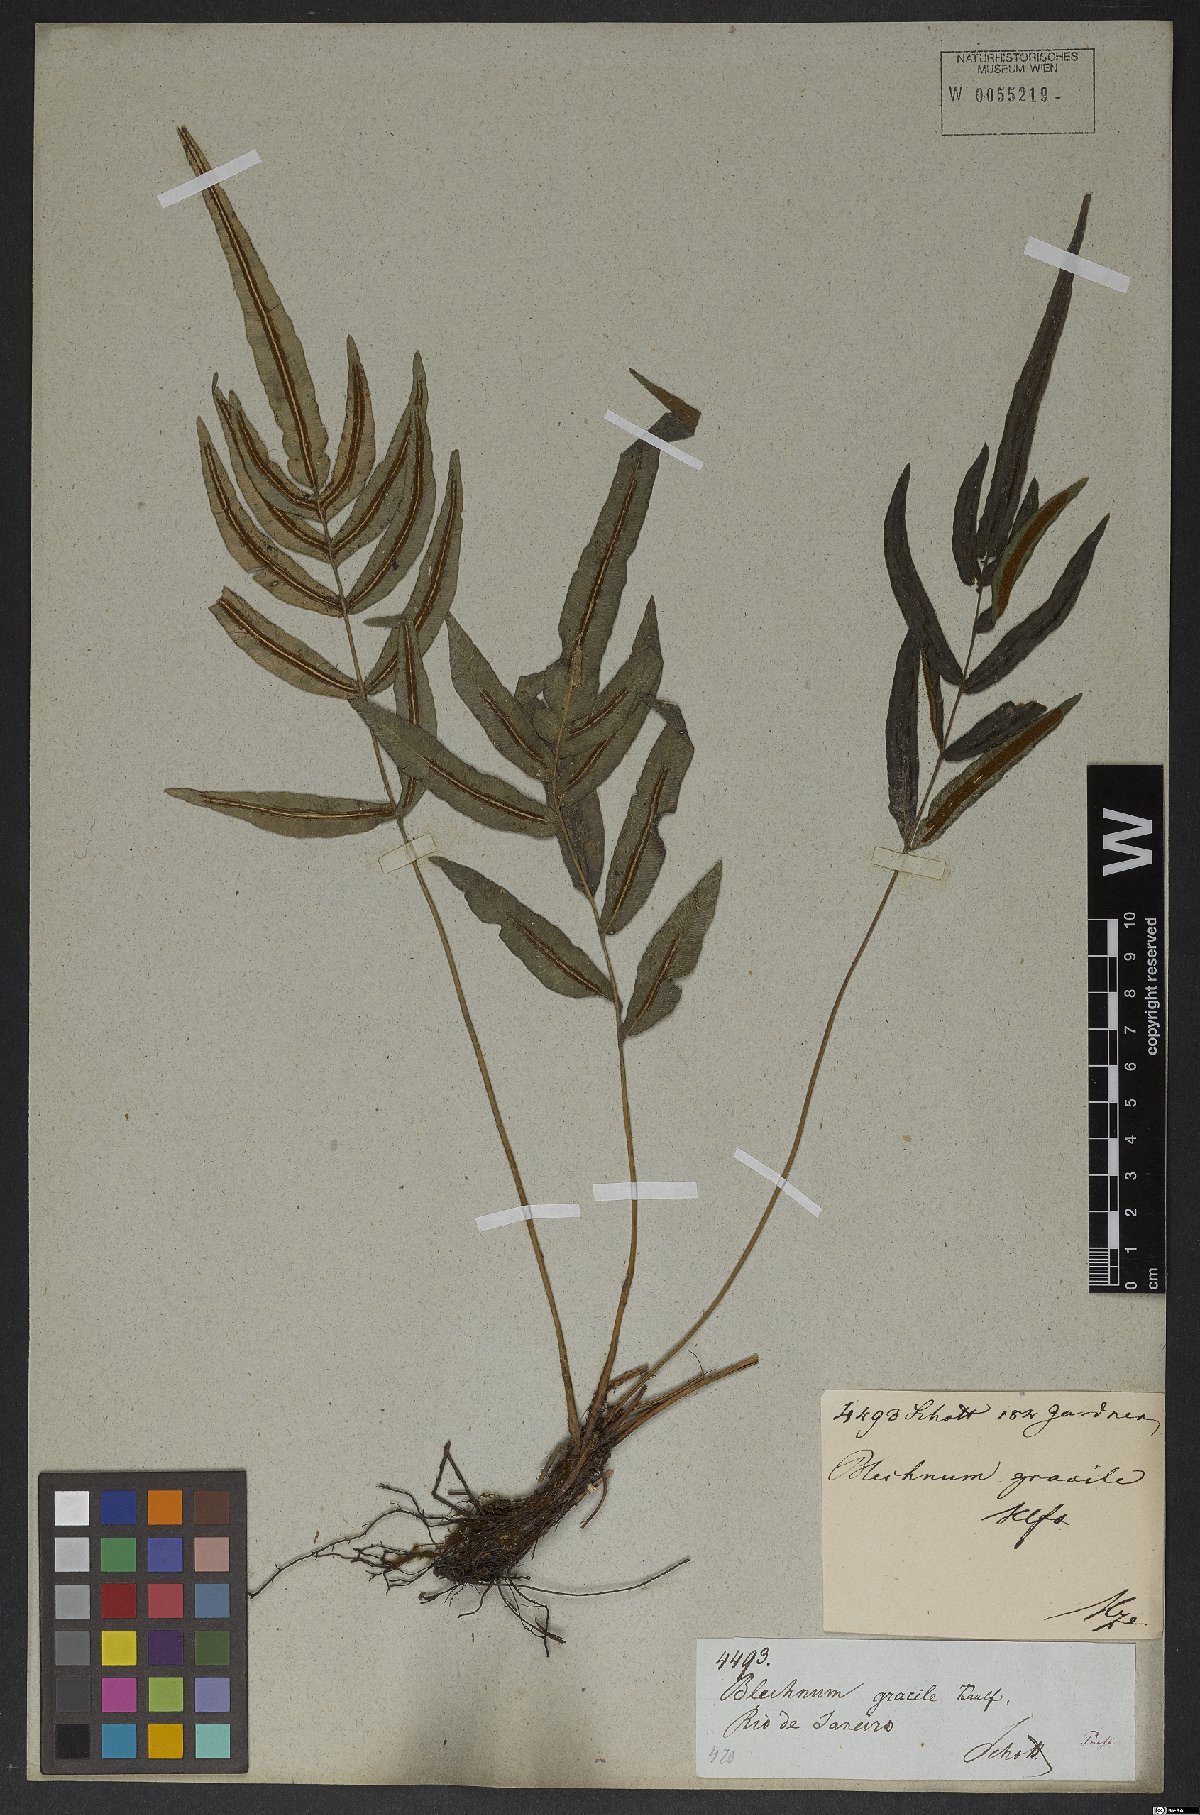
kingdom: Plantae
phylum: Tracheophyta
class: Polypodiopsida
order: Polypodiales
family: Blechnaceae
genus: Blechnum
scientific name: Blechnum gracile
